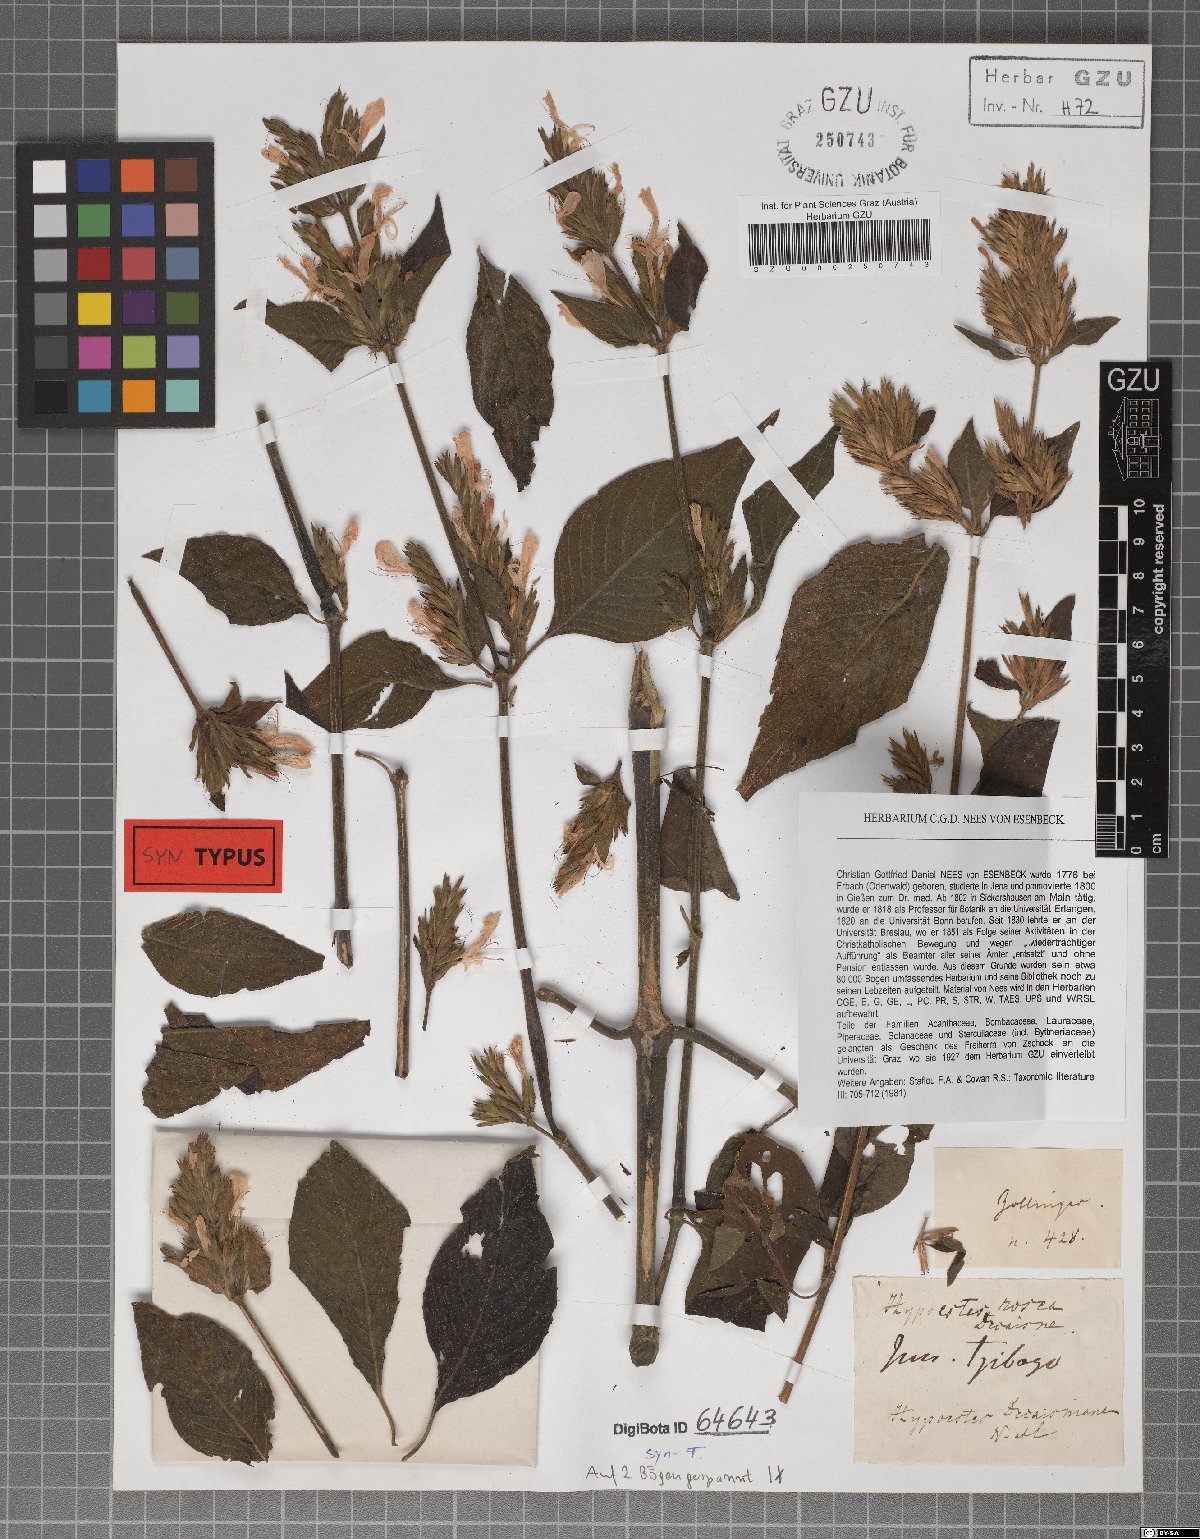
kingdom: Plantae
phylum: Tracheophyta
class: Magnoliopsida
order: Lamiales
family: Acanthaceae
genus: Hypoestes
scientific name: Hypoestes decaisneana
